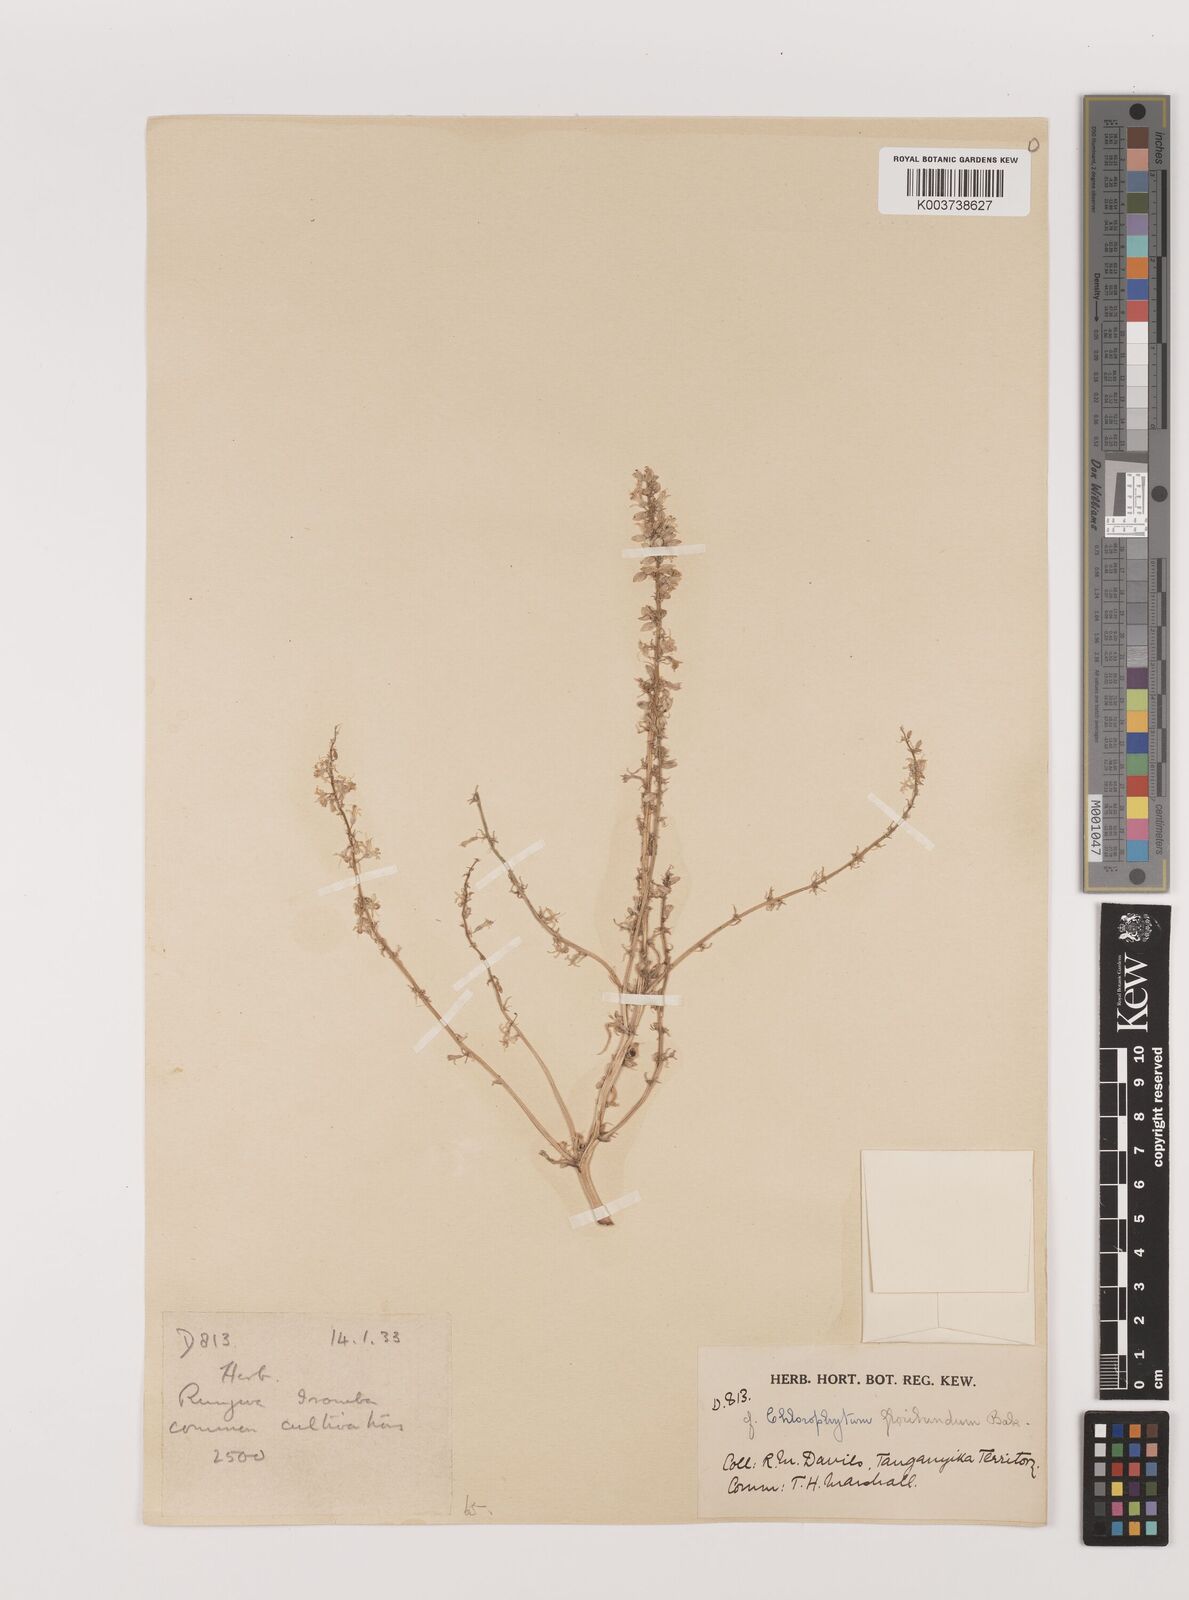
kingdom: Plantae
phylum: Tracheophyta
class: Liliopsida
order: Asparagales
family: Asparagaceae
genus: Chlorophytum
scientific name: Chlorophytum gallabatense
